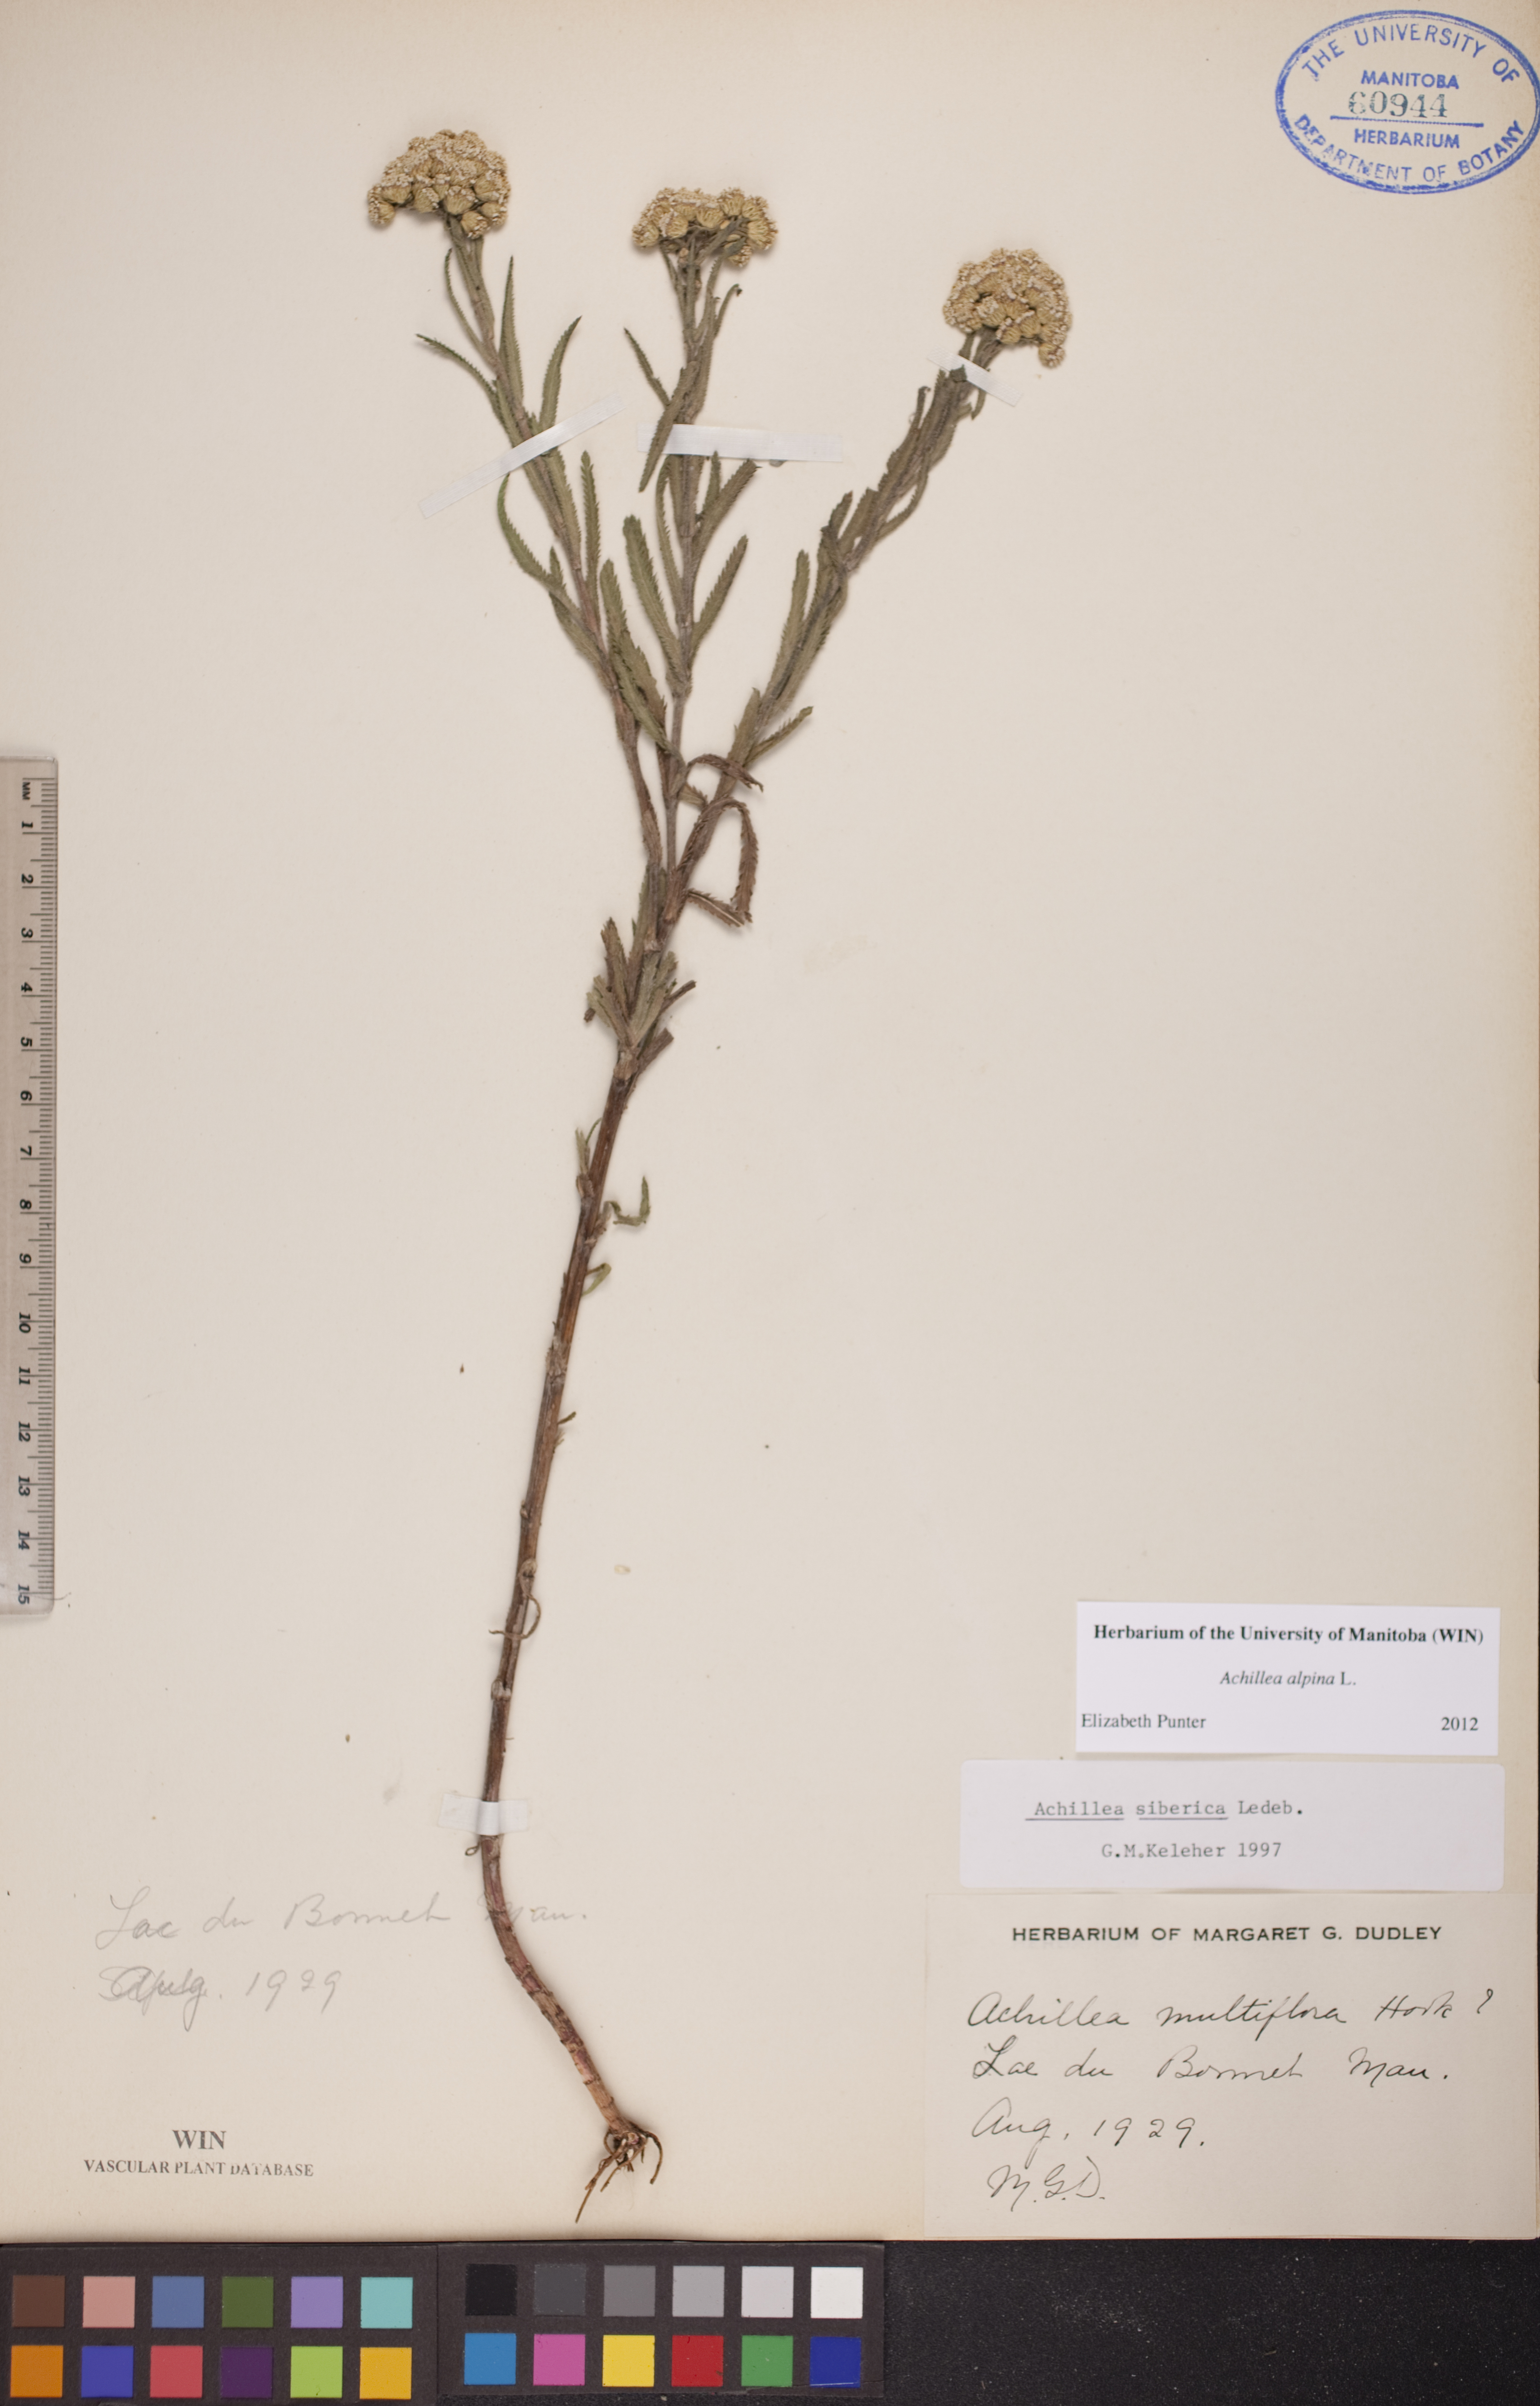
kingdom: Plantae
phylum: Tracheophyta
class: Magnoliopsida
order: Asterales
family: Asteraceae
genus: Achillea
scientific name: Achillea alpina
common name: Siberian yarrow
